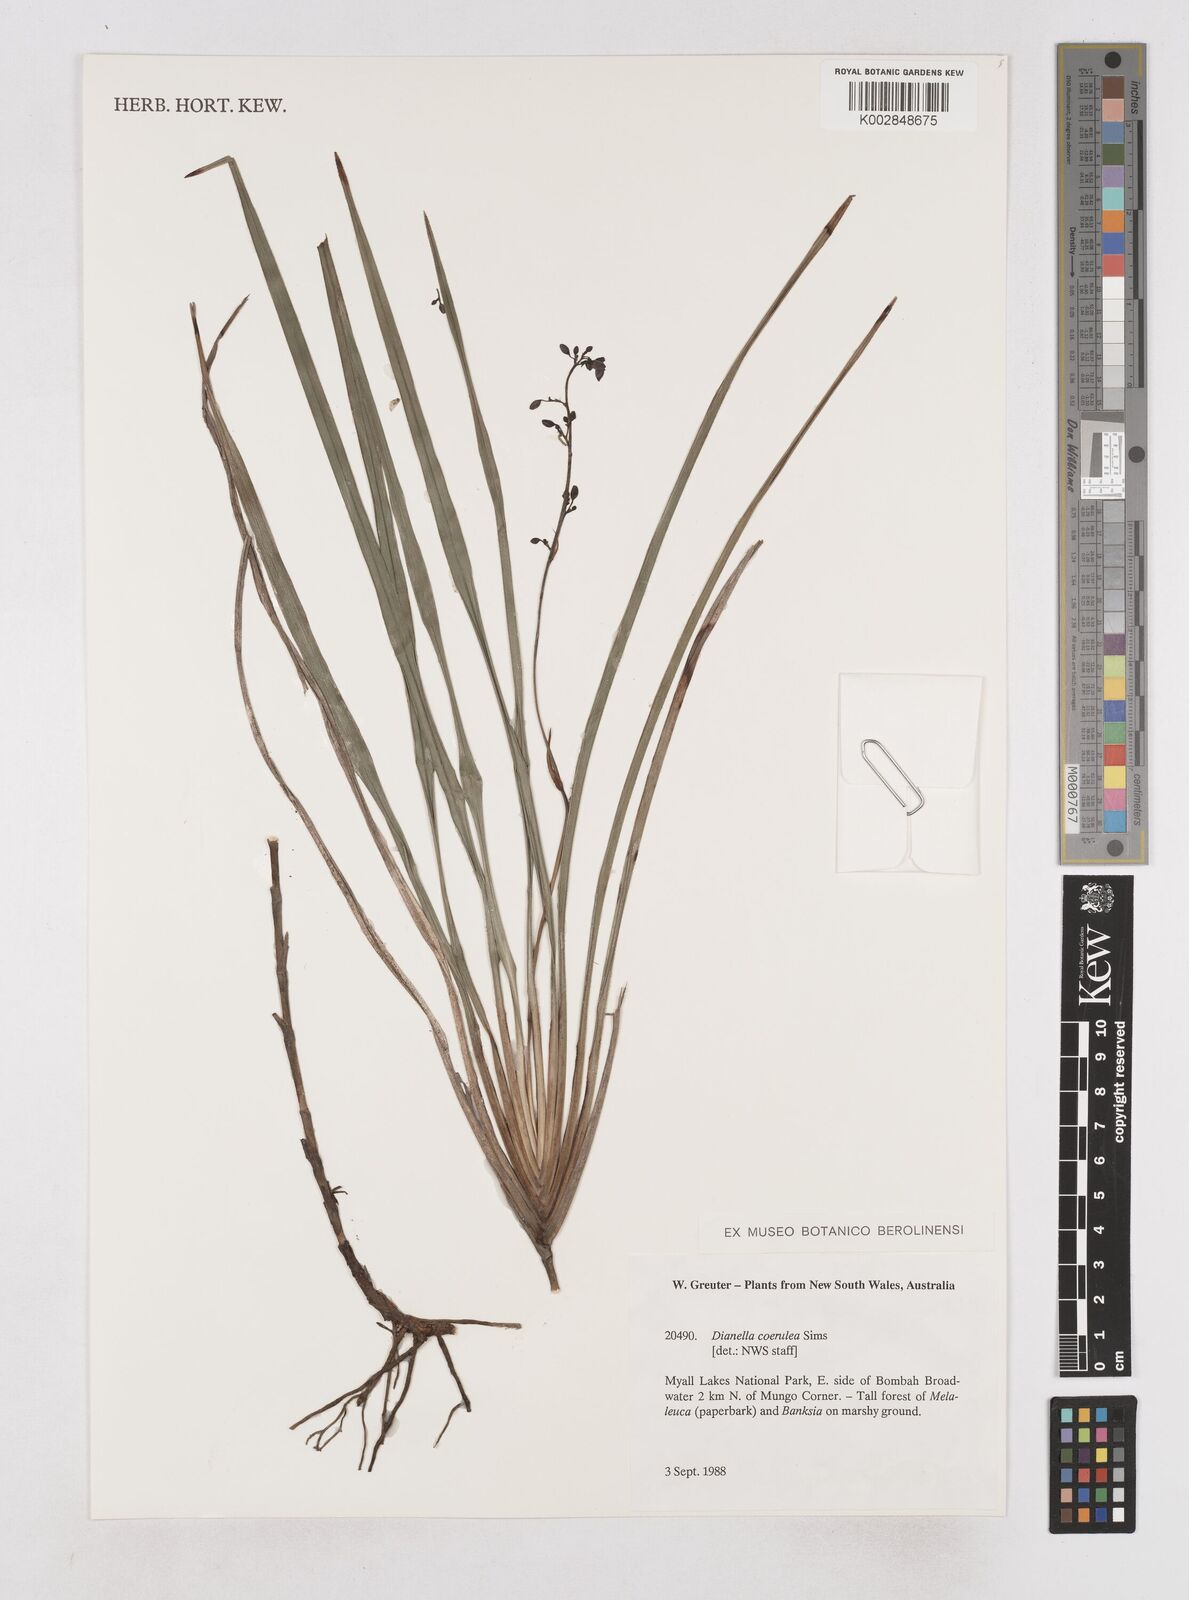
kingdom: Plantae
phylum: Tracheophyta
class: Liliopsida
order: Asparagales
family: Asphodelaceae
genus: Dianella
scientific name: Dianella caerulea
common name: Blue flax-lily
